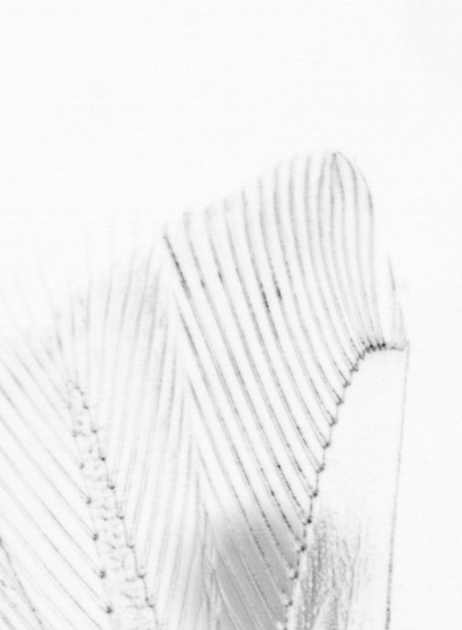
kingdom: Animalia
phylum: Chordata
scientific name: Chordata
